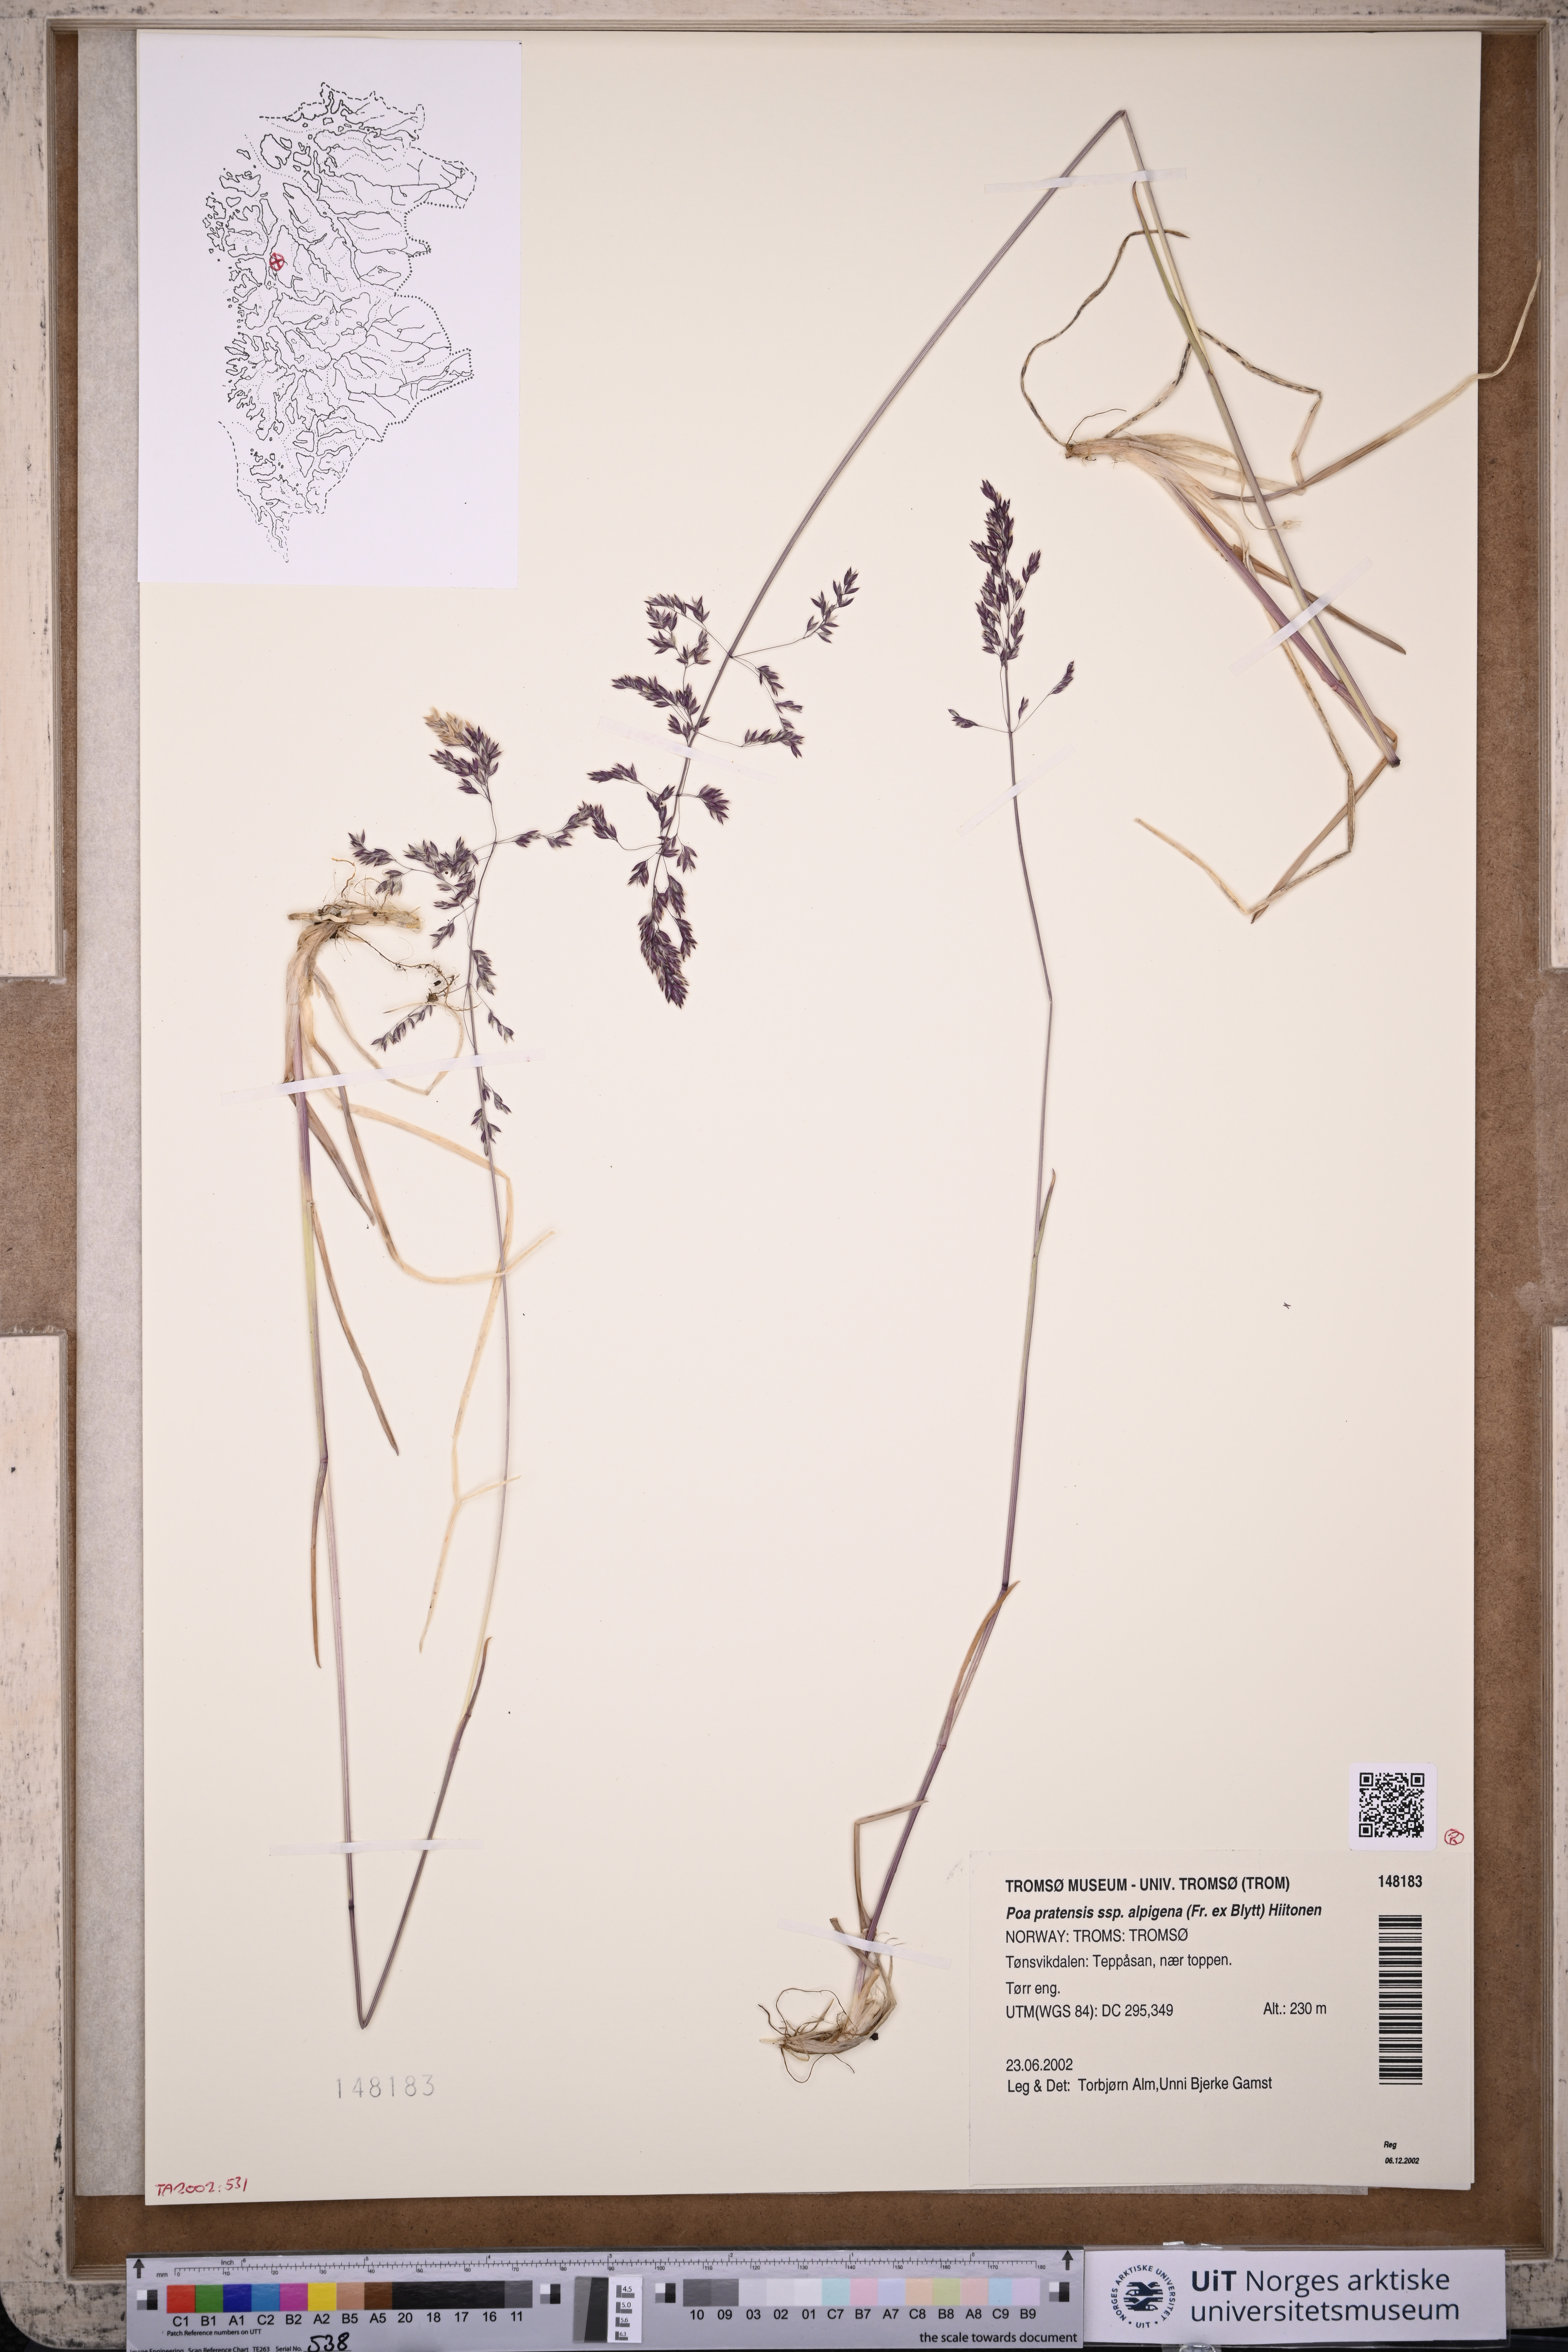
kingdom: Plantae
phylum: Tracheophyta
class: Liliopsida
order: Poales
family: Poaceae
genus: Poa
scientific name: Poa alpigena
